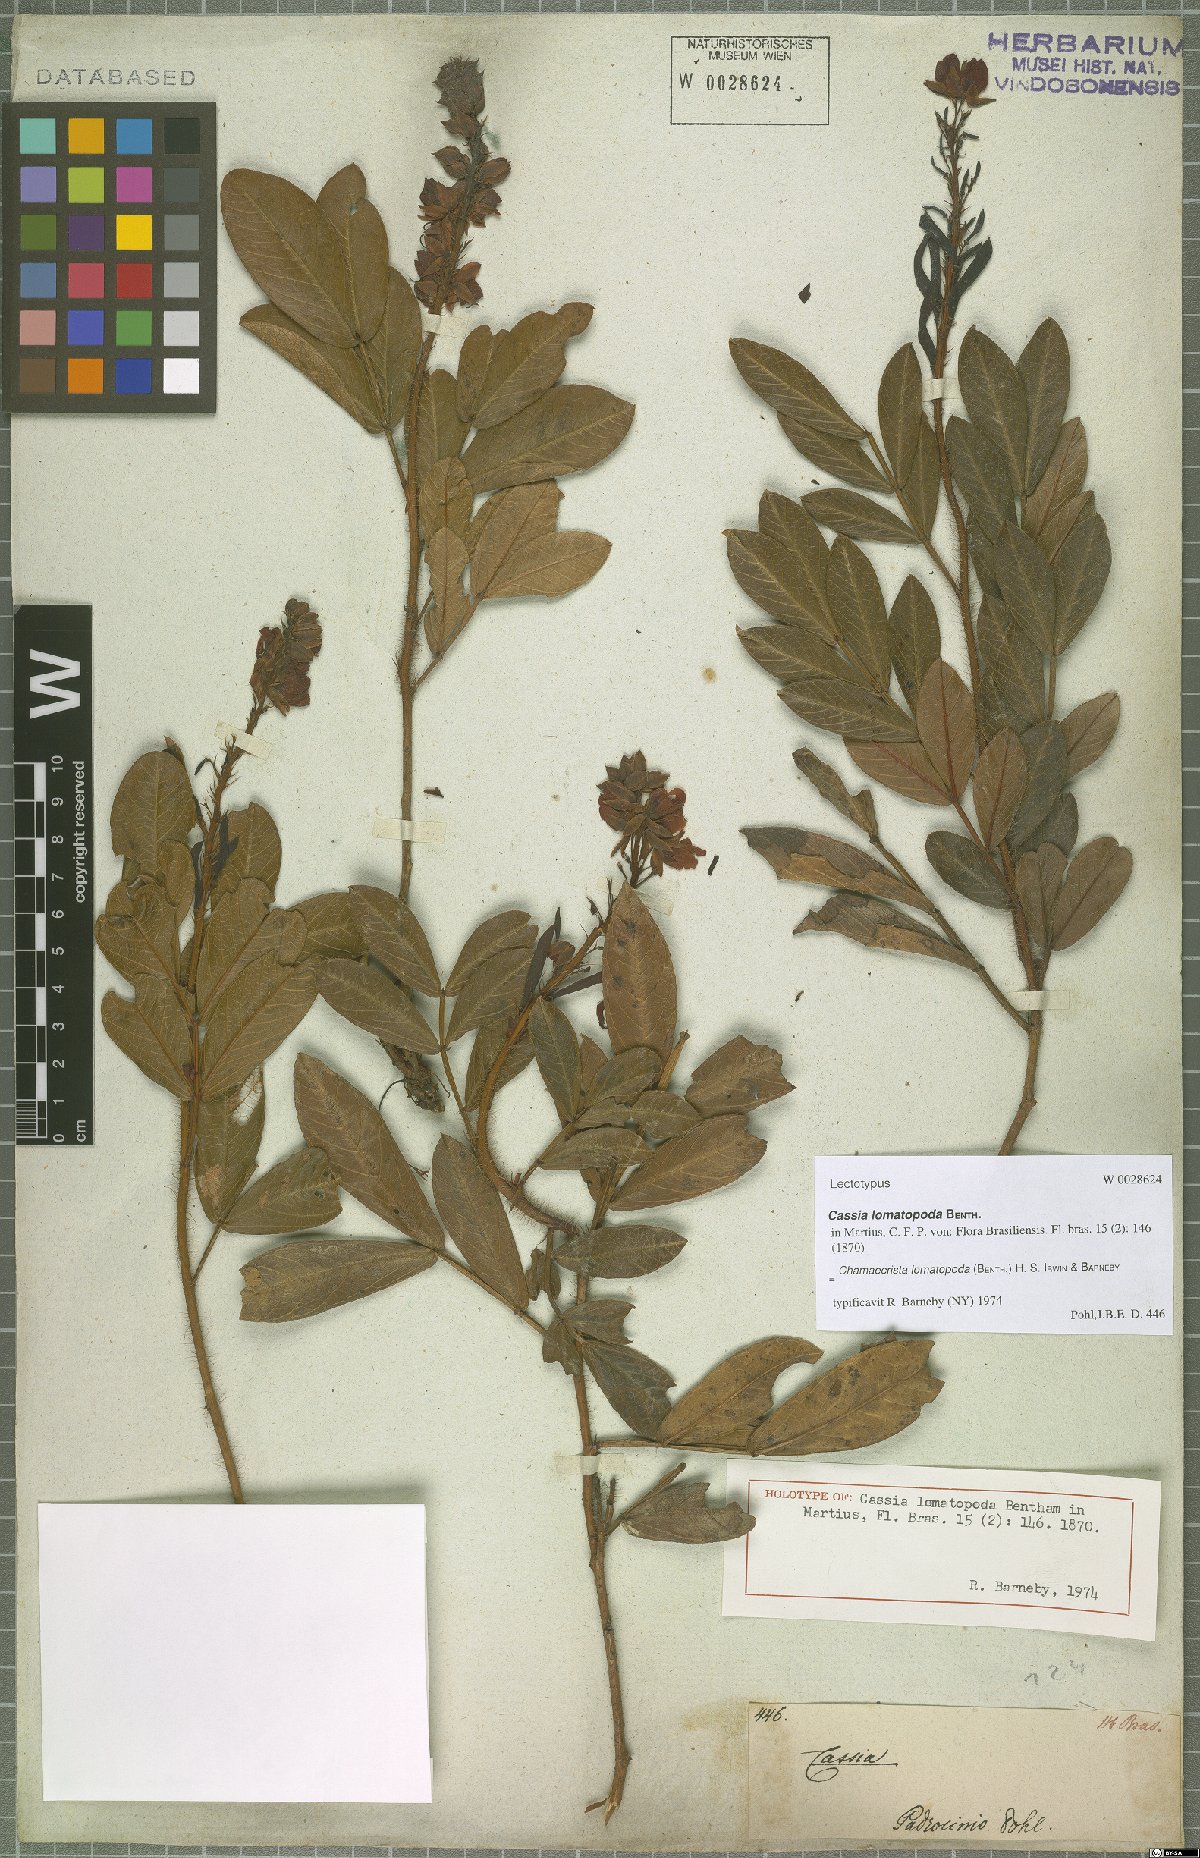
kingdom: Plantae
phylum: Tracheophyta
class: Magnoliopsida
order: Fabales
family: Fabaceae
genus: Chamaecrista
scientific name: Chamaecrista lomatopoda
